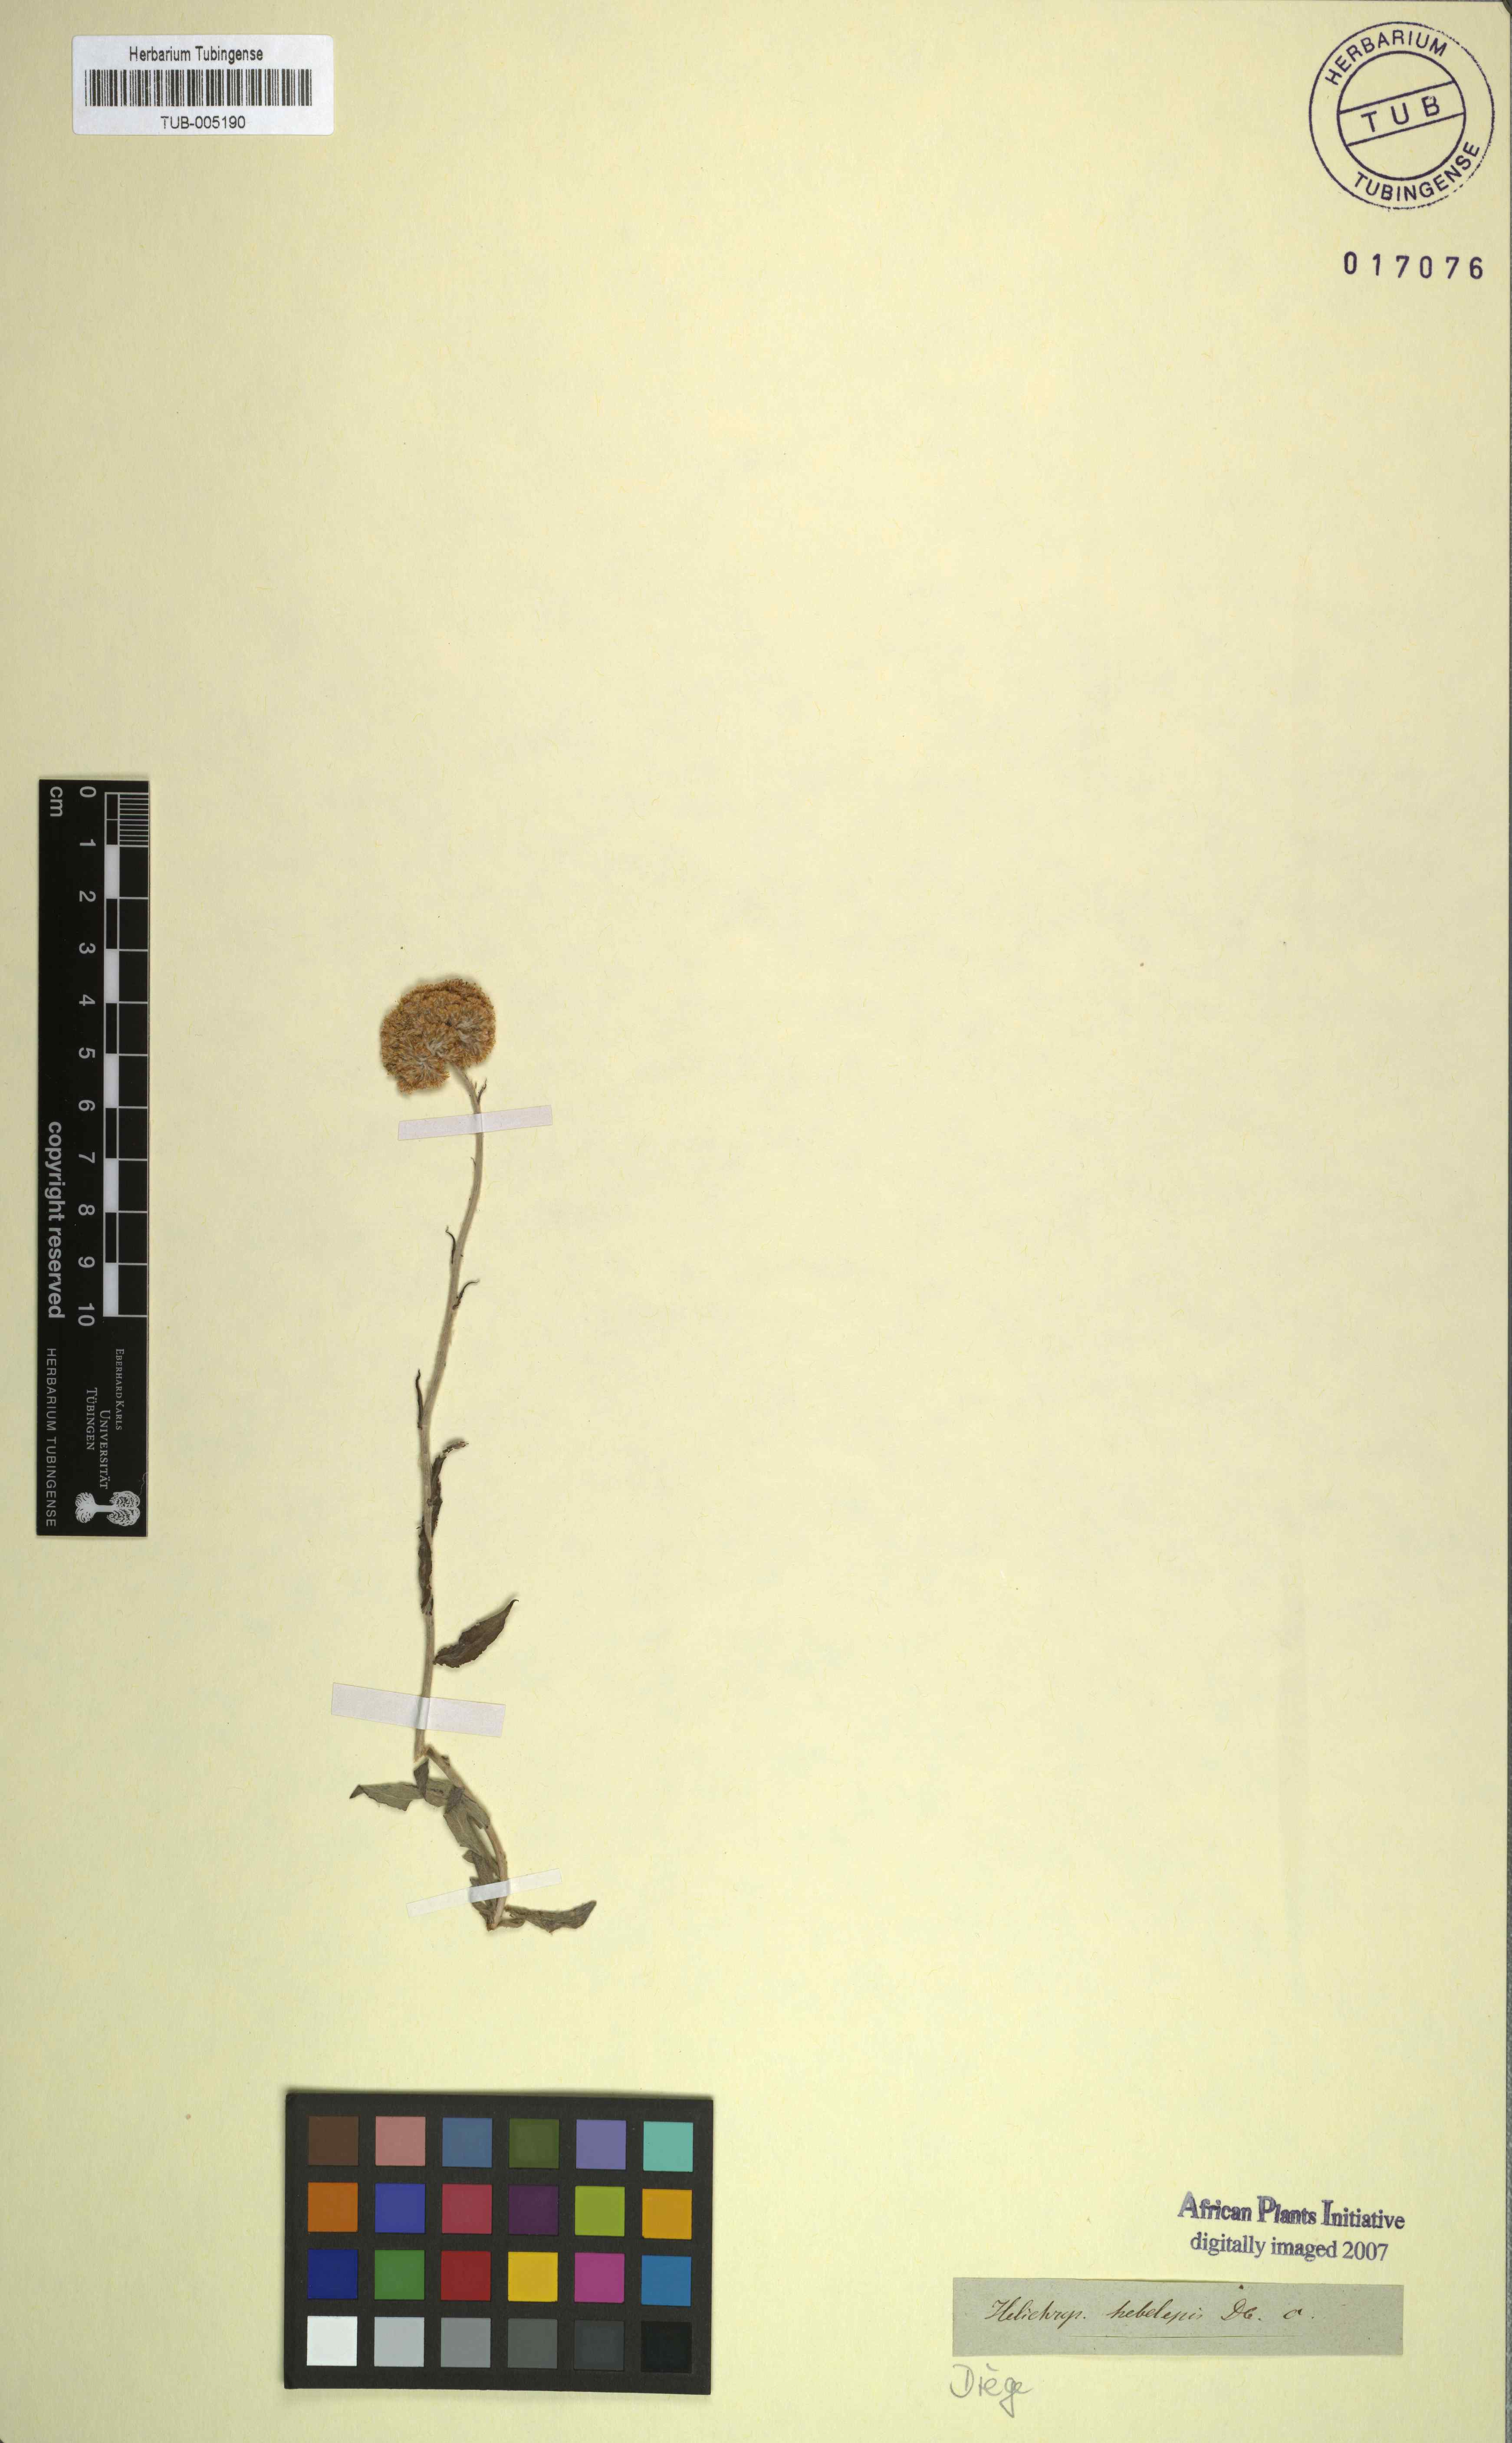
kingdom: Plantae
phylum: Tracheophyta
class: Magnoliopsida
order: Asterales
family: Asteraceae
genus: Helichrysum
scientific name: Helichrysum hebelepis
